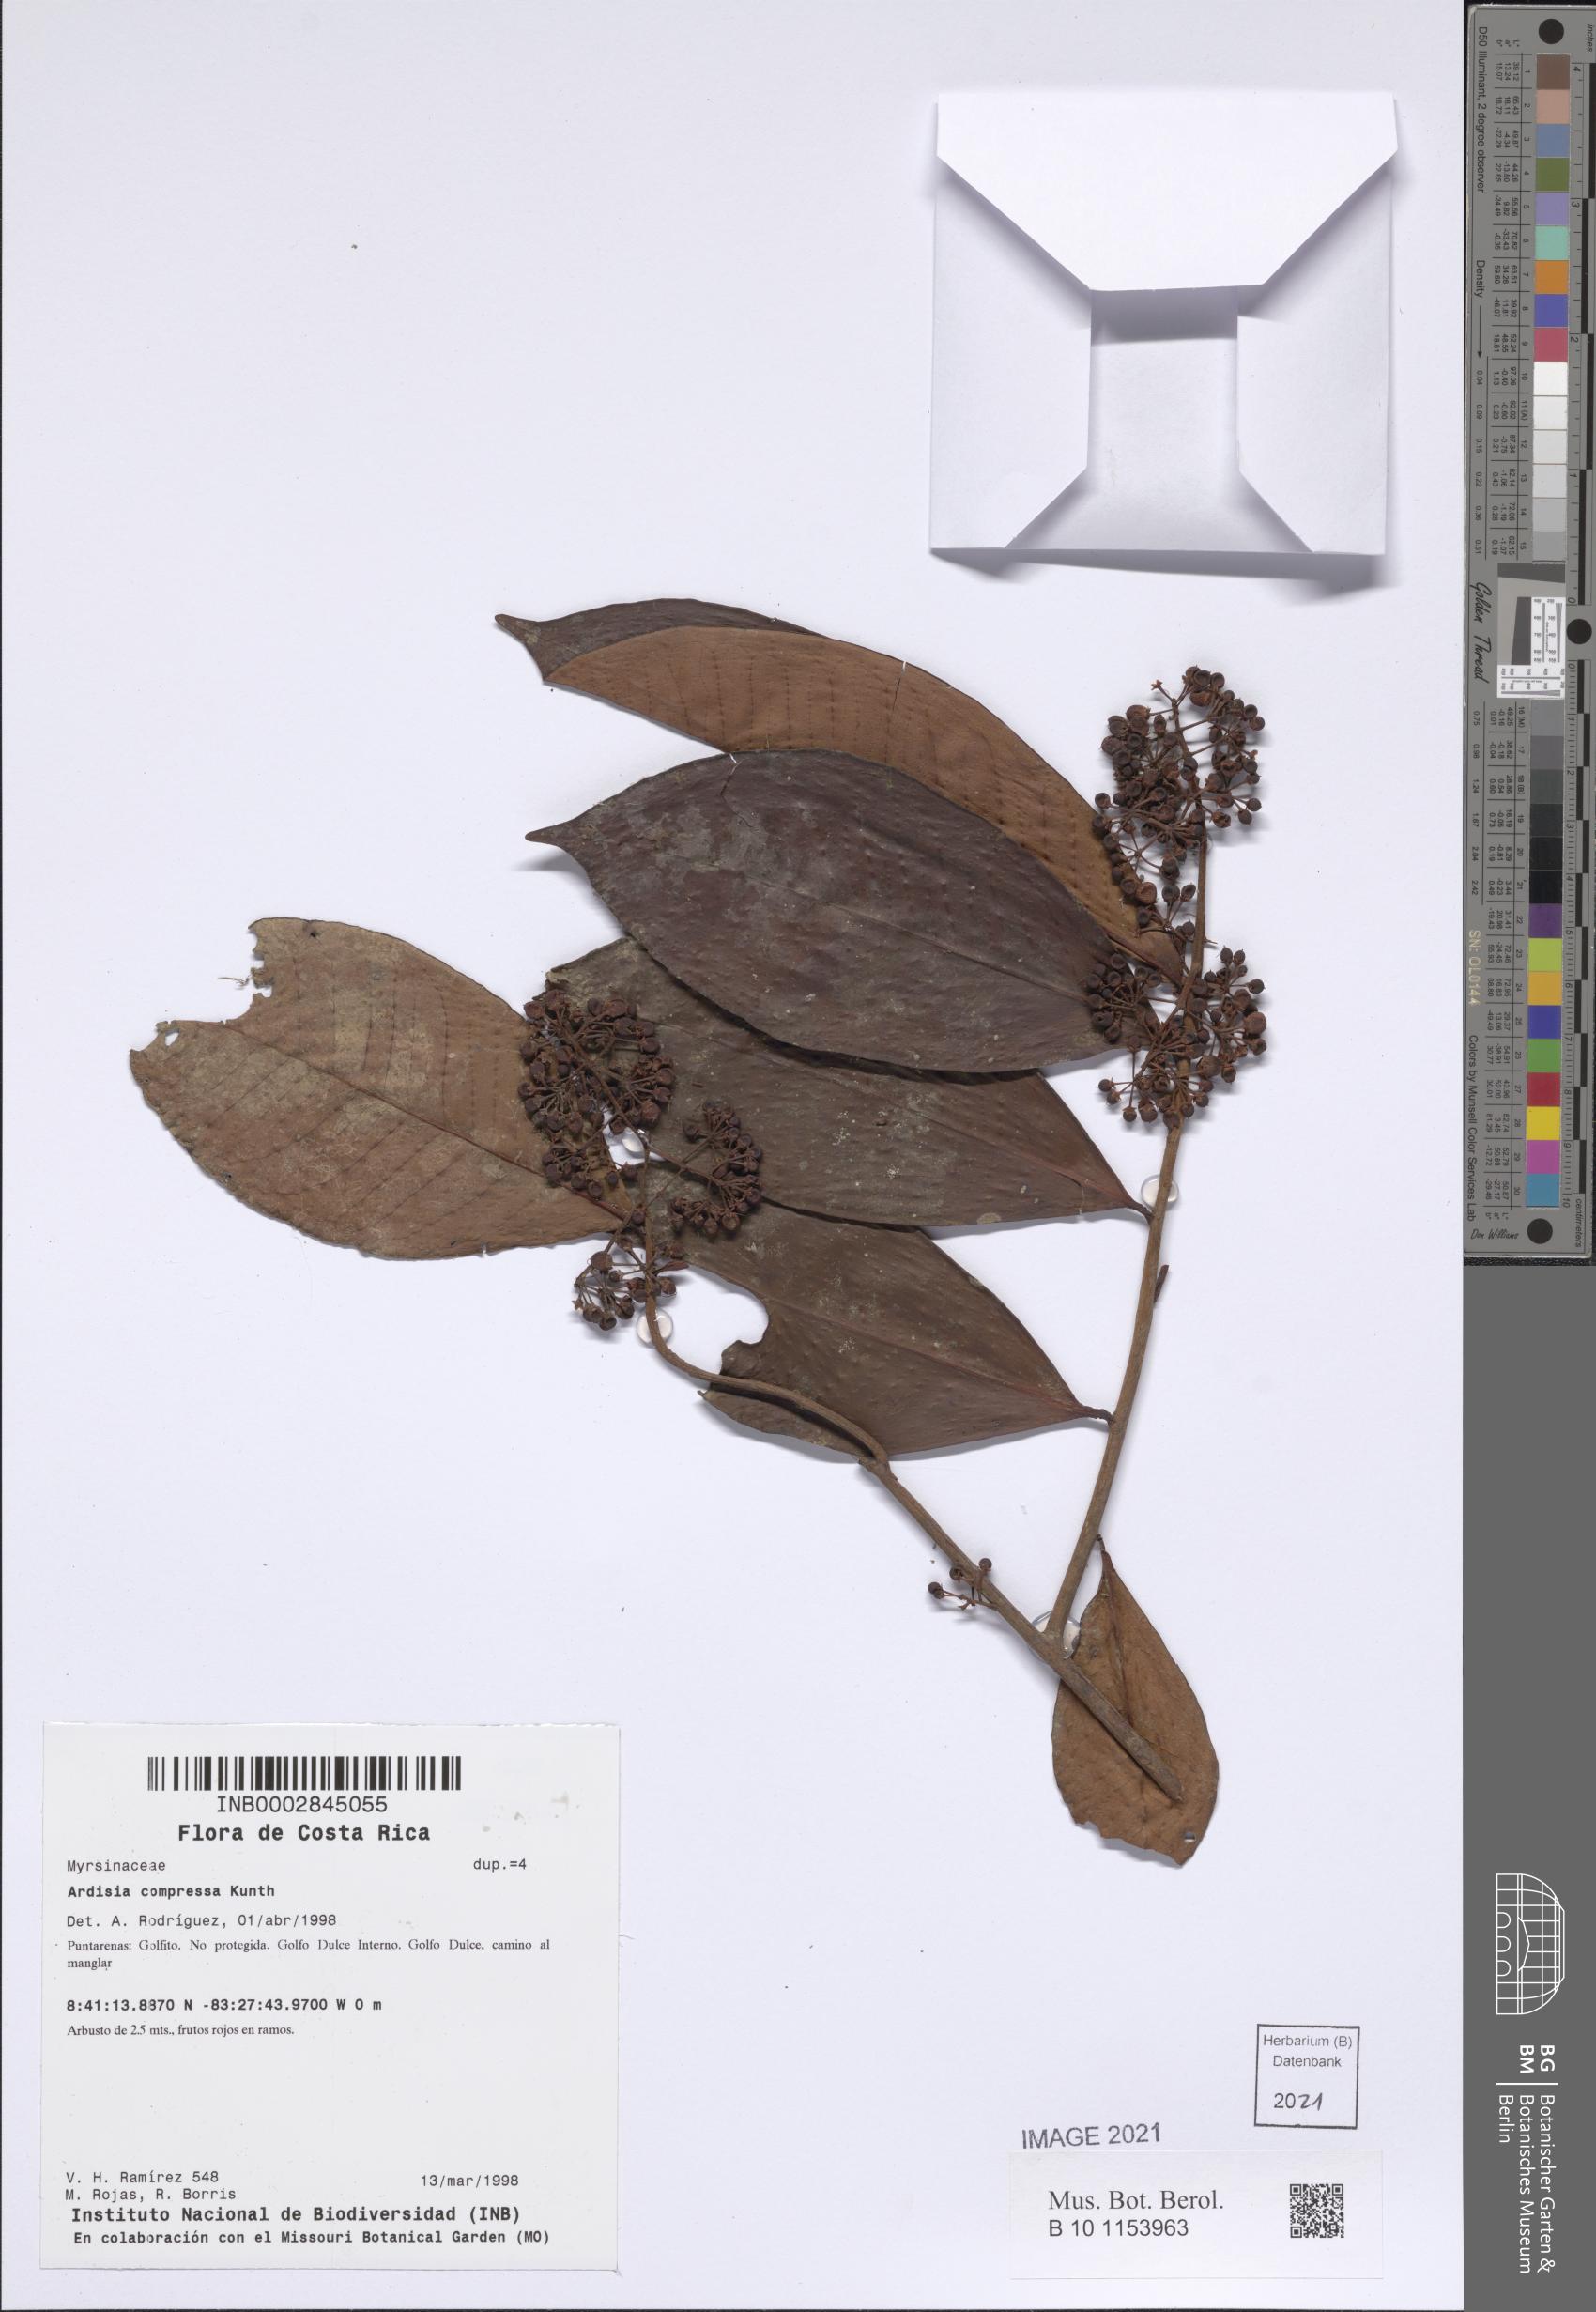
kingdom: Plantae
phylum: Tracheophyta
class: Magnoliopsida
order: Ericales
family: Primulaceae
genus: Ardisia
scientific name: Ardisia compressa
